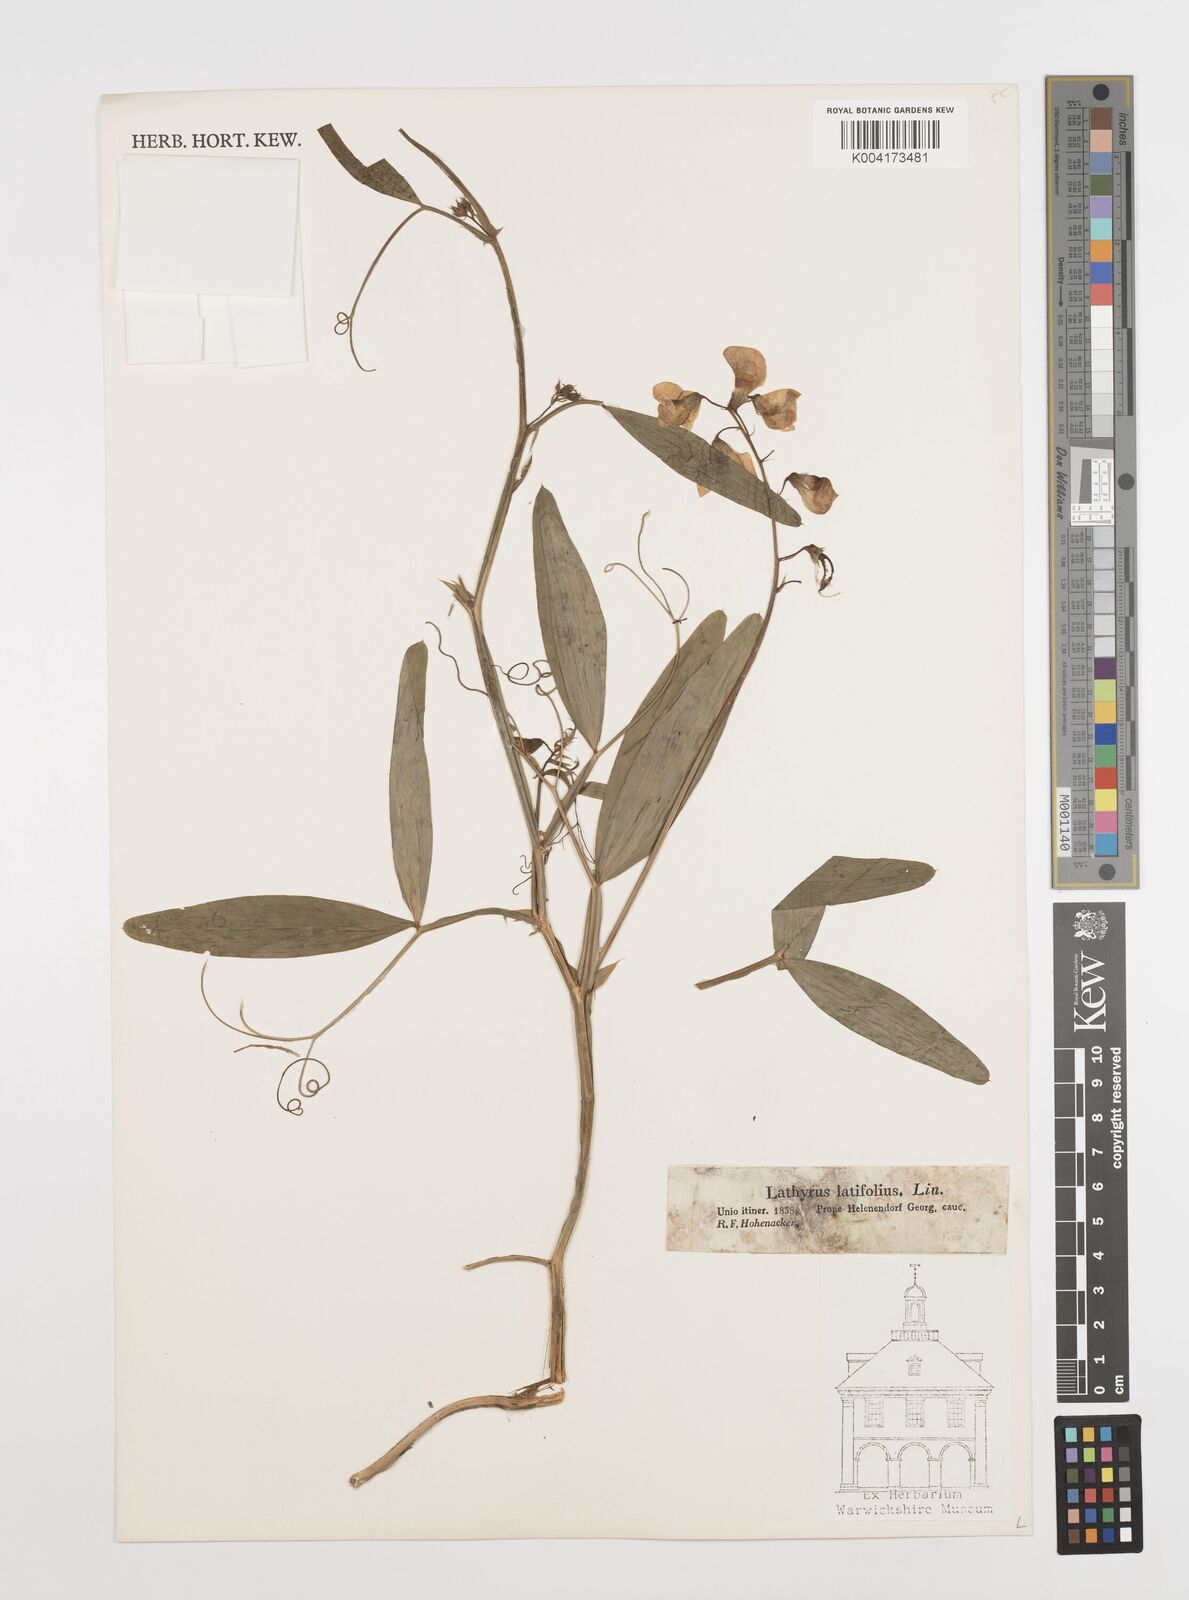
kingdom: Plantae
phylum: Tracheophyta
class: Magnoliopsida
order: Fabales
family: Fabaceae
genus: Lathyrus
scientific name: Lathyrus latifolius
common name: Perennial pea
